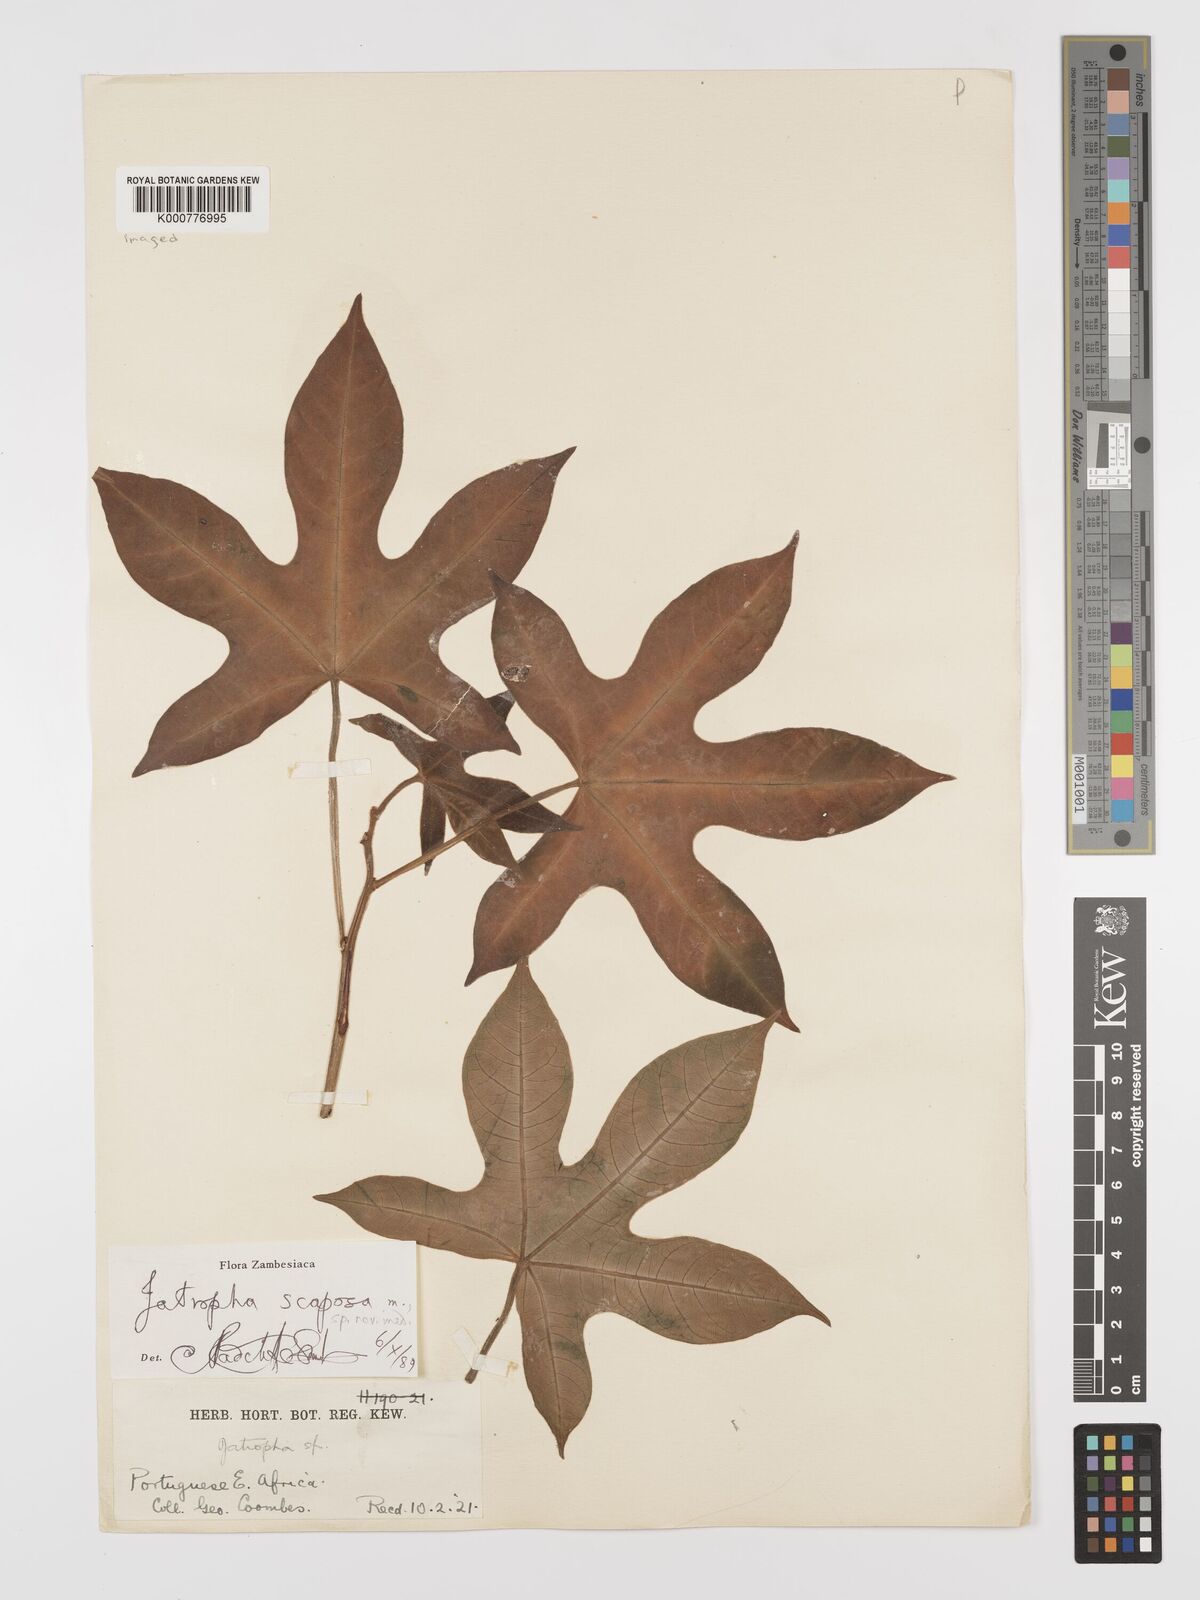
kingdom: Plantae
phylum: Tracheophyta
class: Magnoliopsida
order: Malpighiales
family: Euphorbiaceae
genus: Jatropha
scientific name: Jatropha scaposa
